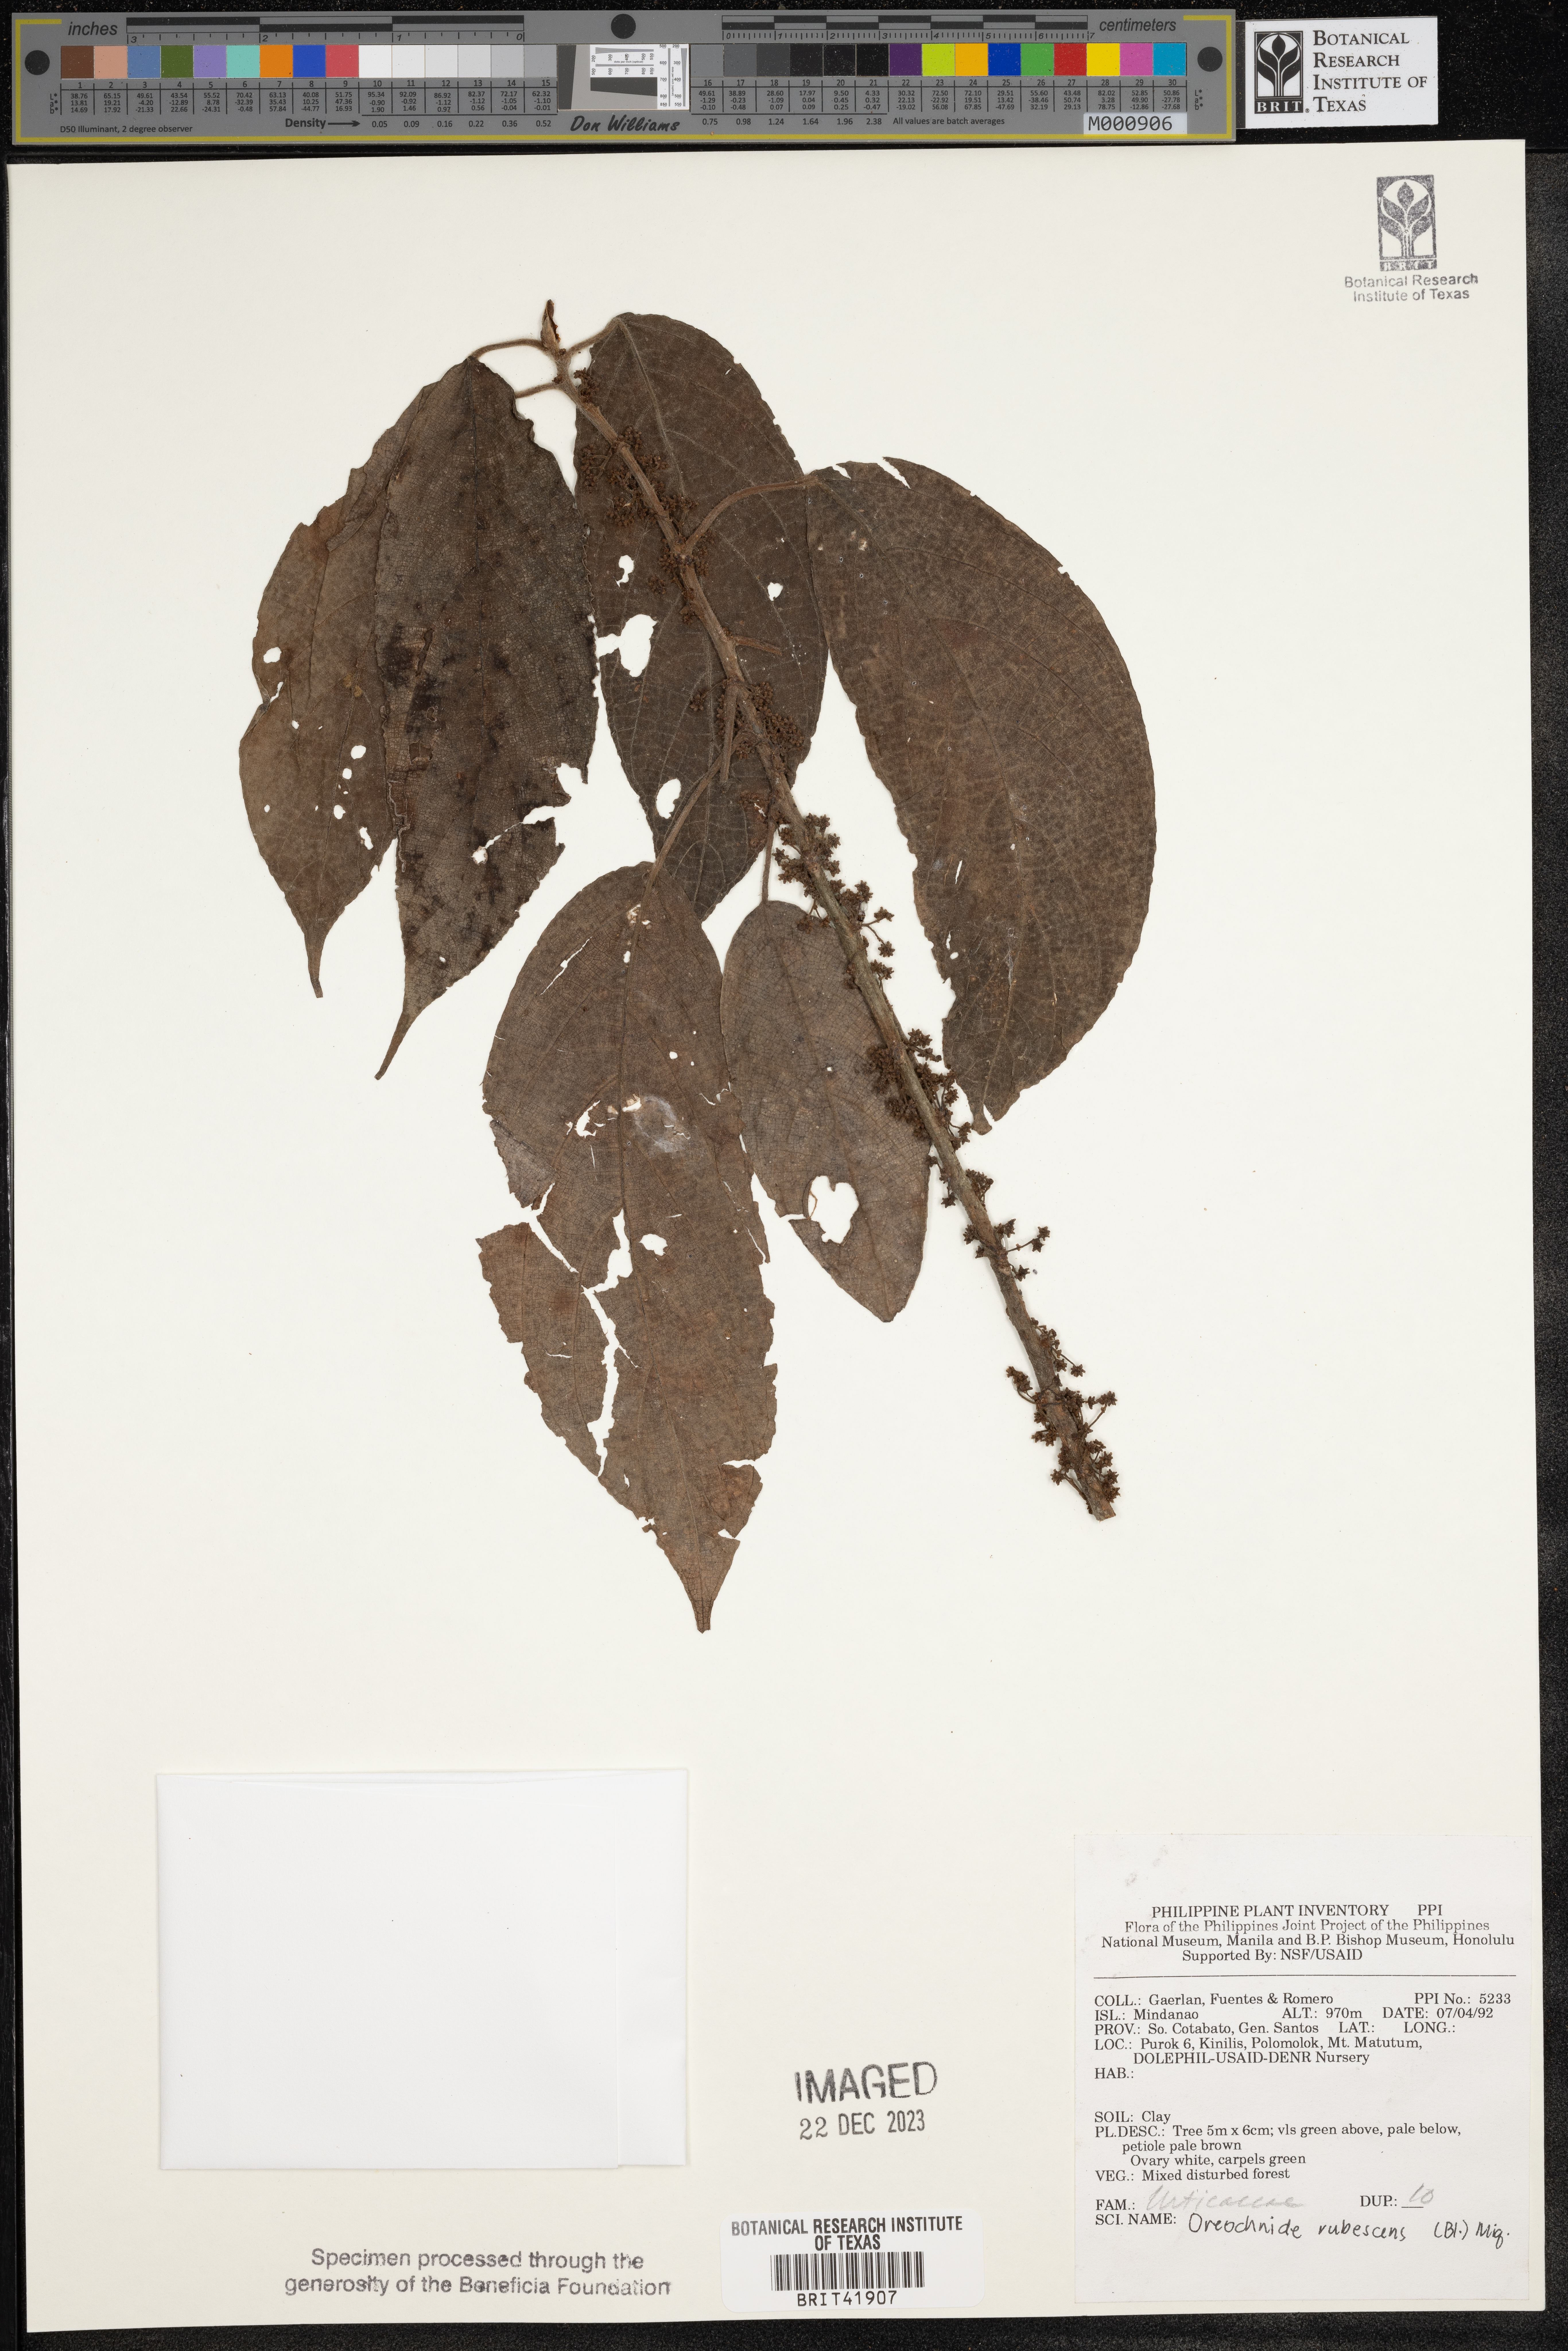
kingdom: Plantae
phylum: Tracheophyta
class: Magnoliopsida
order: Rosales
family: Urticaceae
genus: Oreocnide
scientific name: Oreocnide rubescens
